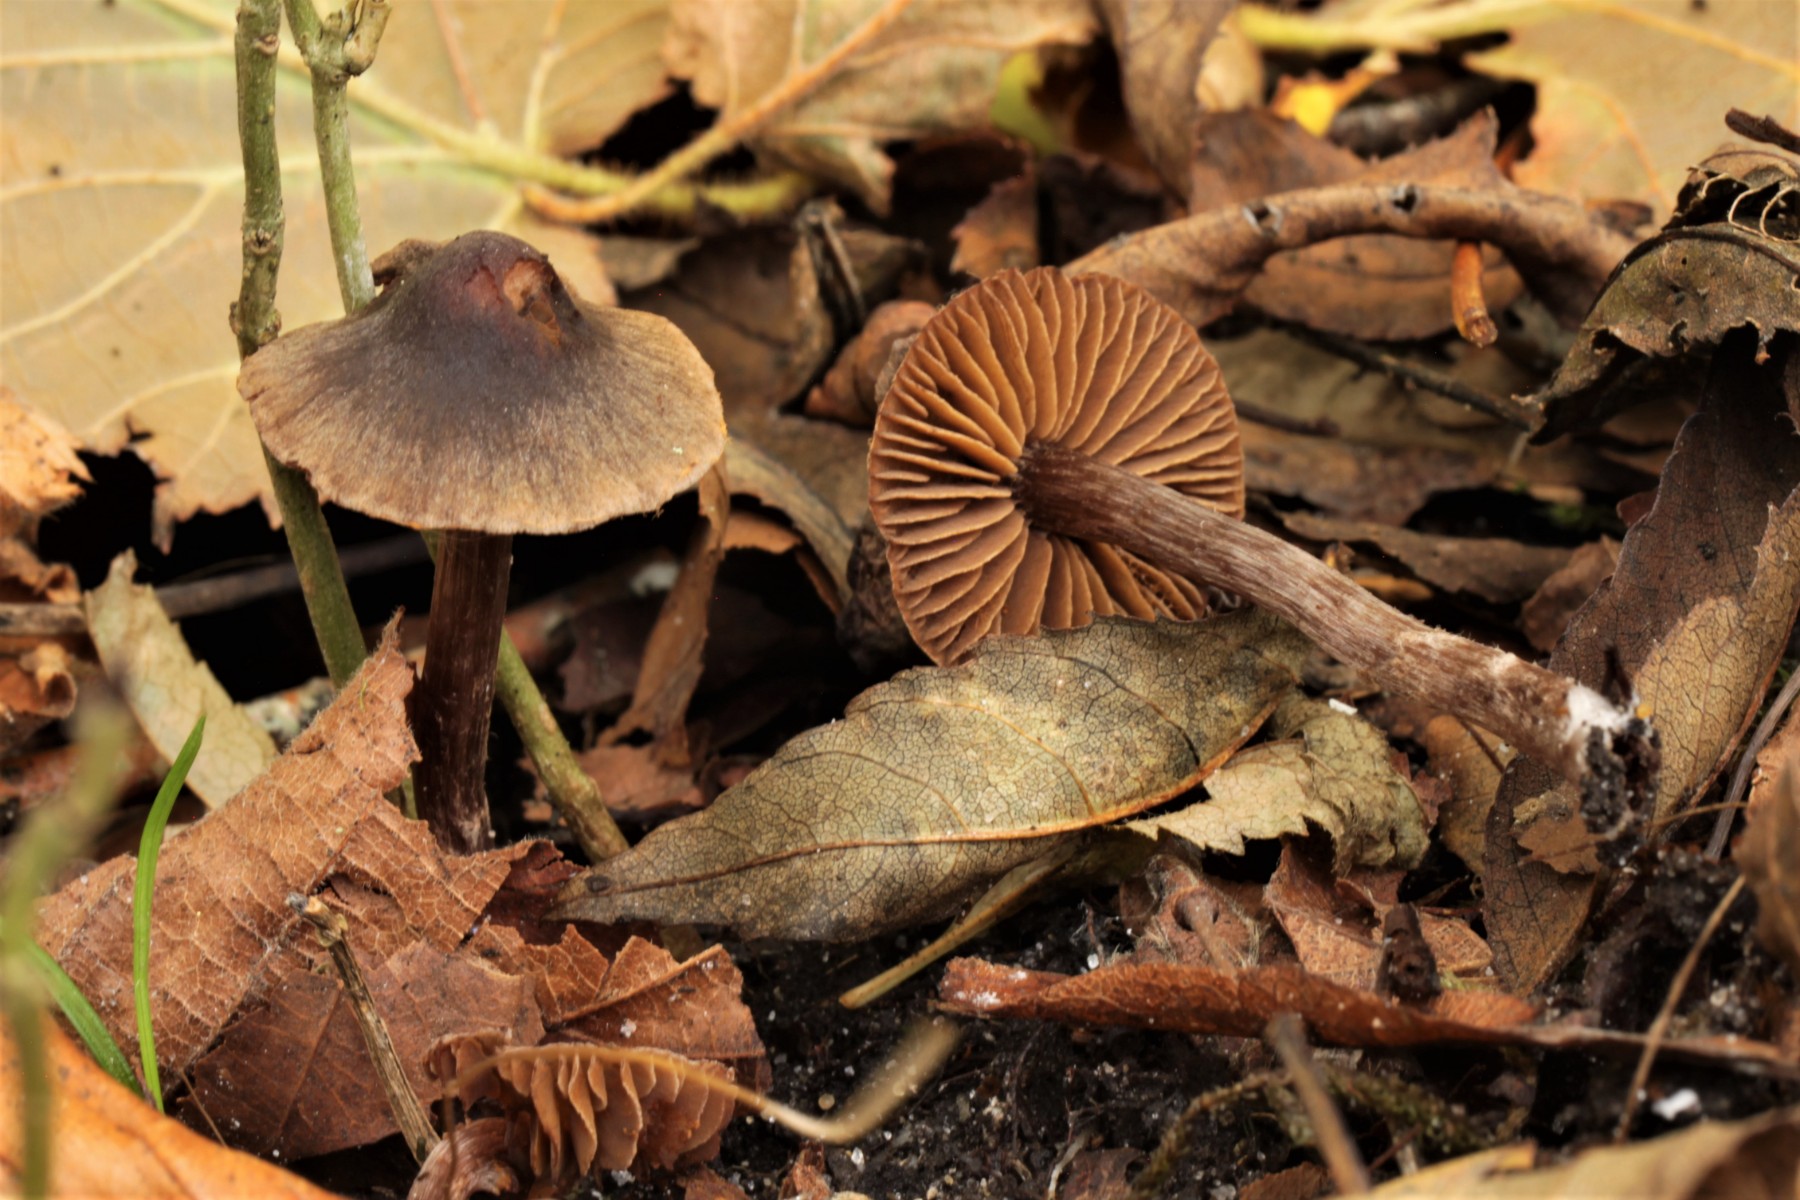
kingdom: Fungi
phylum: Basidiomycota
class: Agaricomycetes
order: Agaricales
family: Cortinariaceae
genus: Cortinarius
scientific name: Cortinarius
